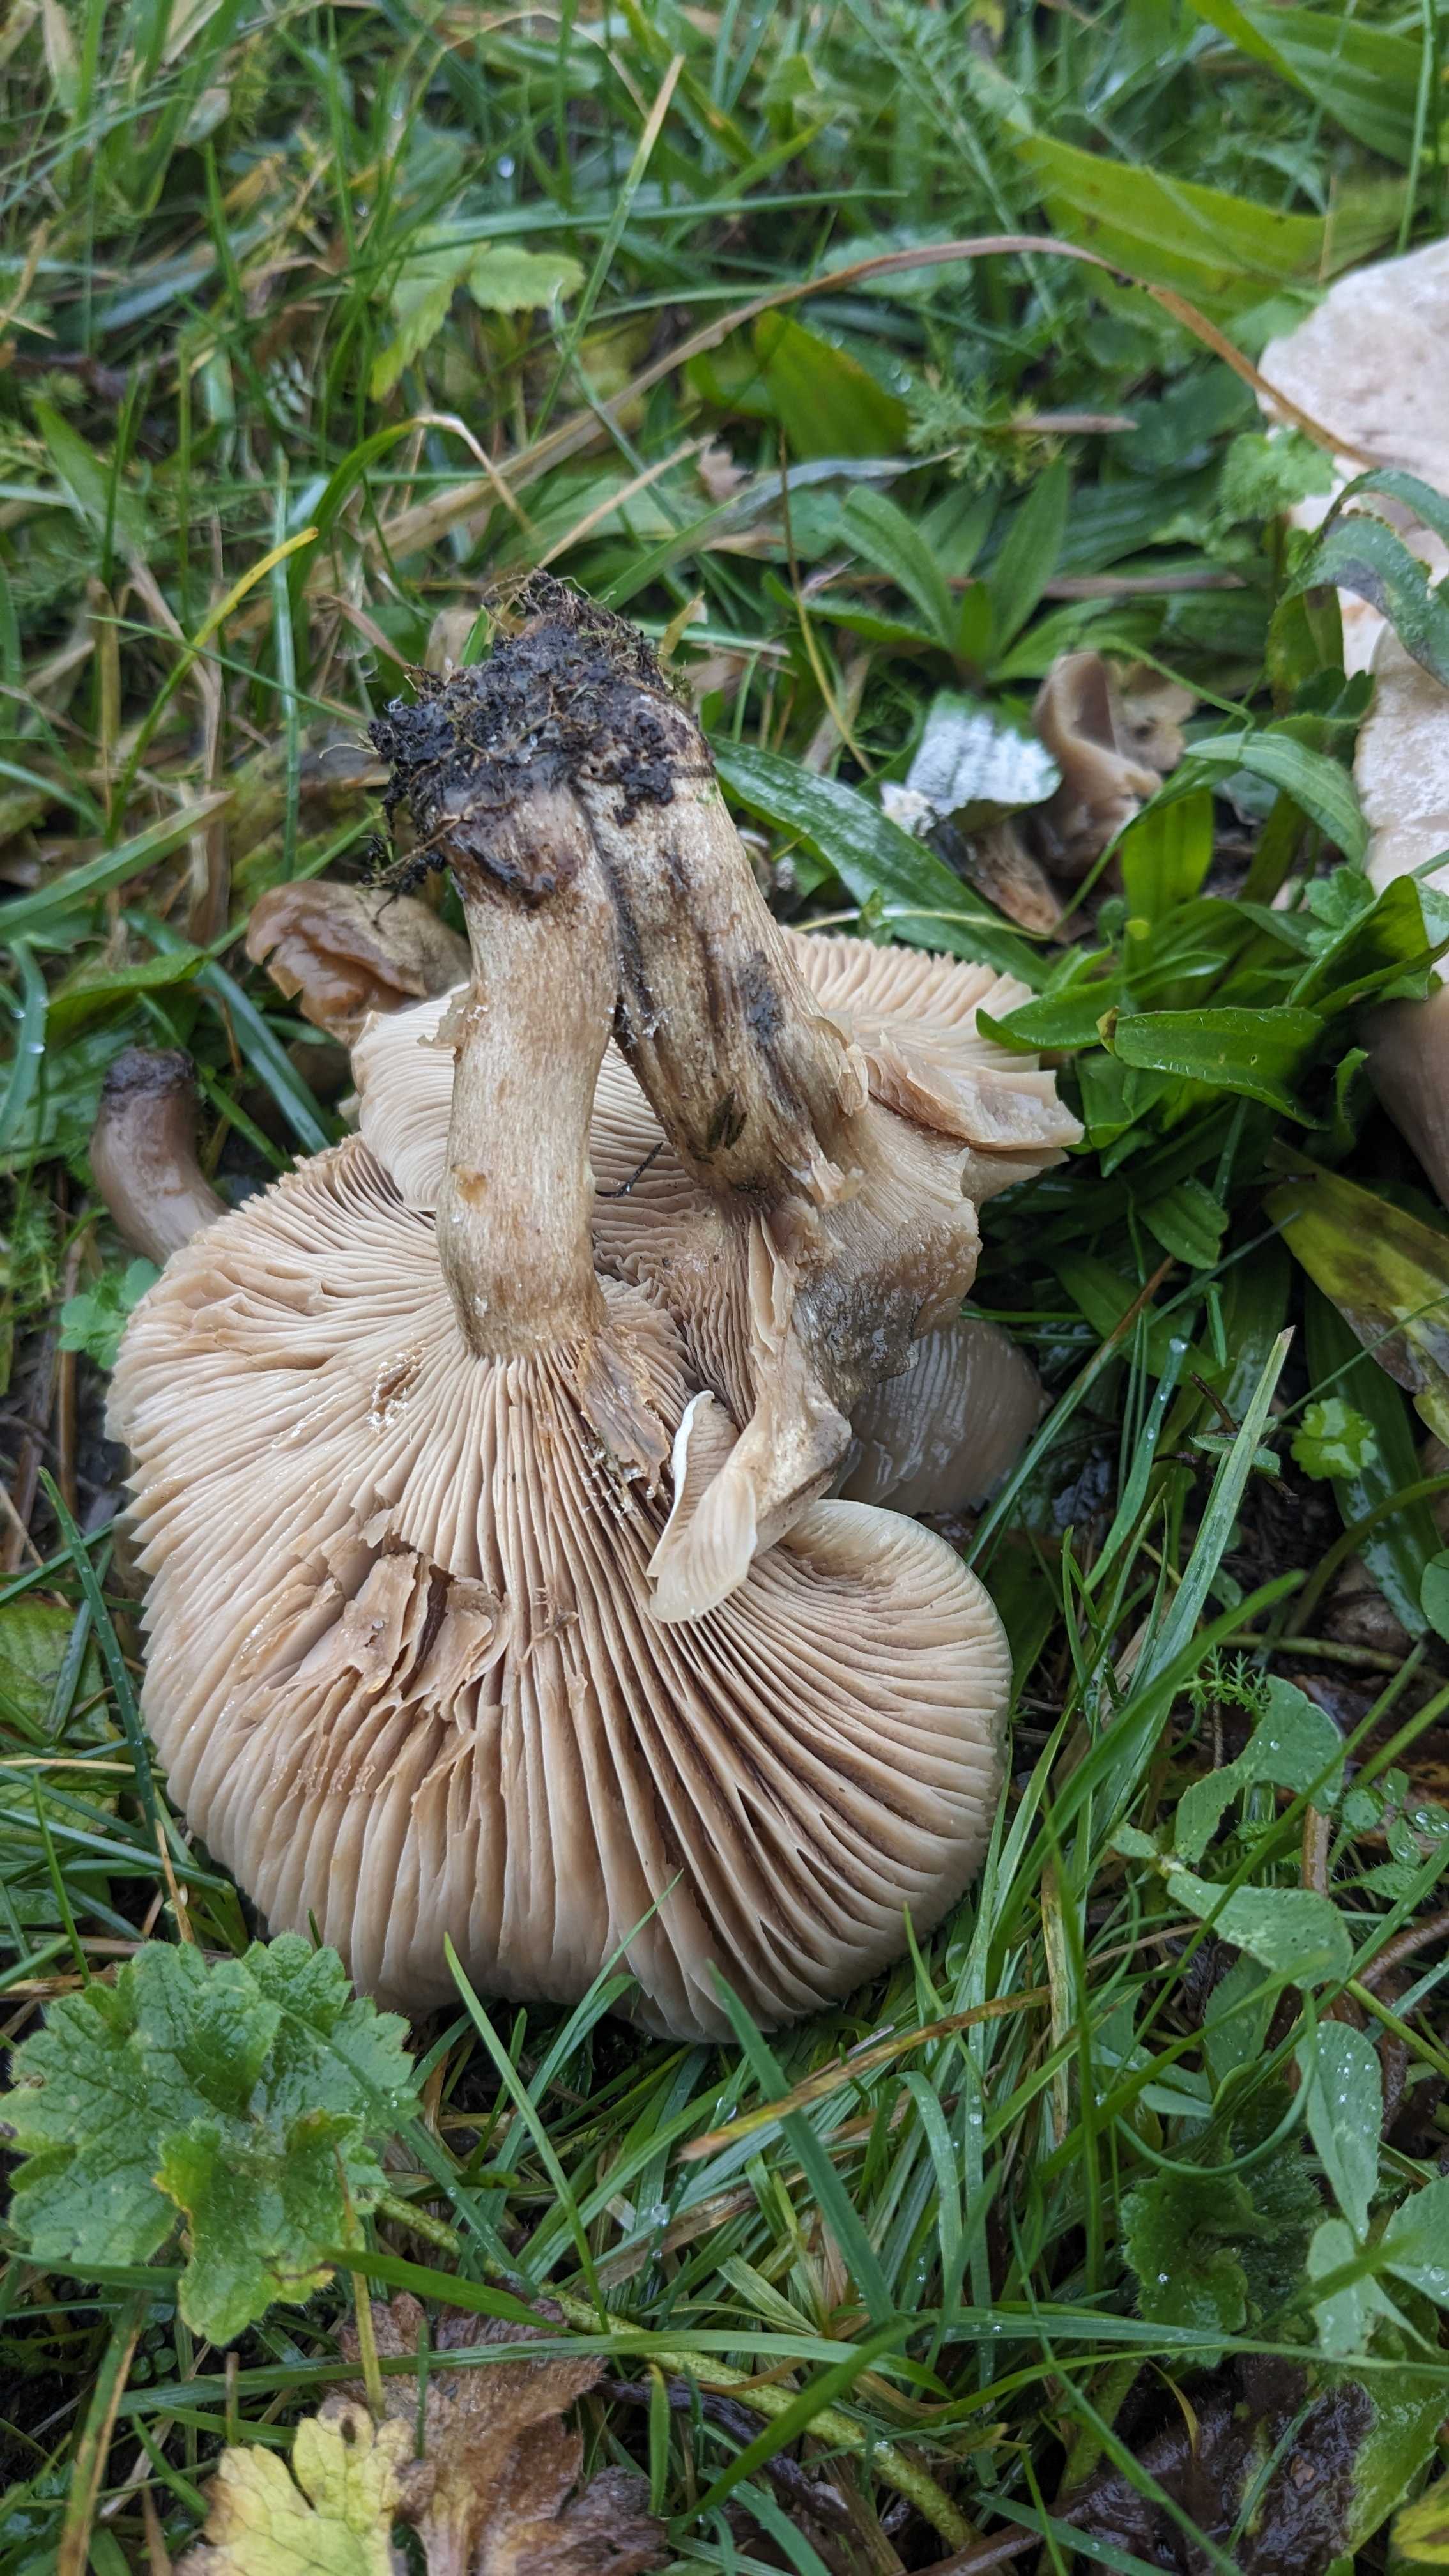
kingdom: Fungi
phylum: Basidiomycota
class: Agaricomycetes
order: Agaricales
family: Tricholomataceae
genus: Lepista
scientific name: Lepista panaeolus
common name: marmoreret hekseringshat
